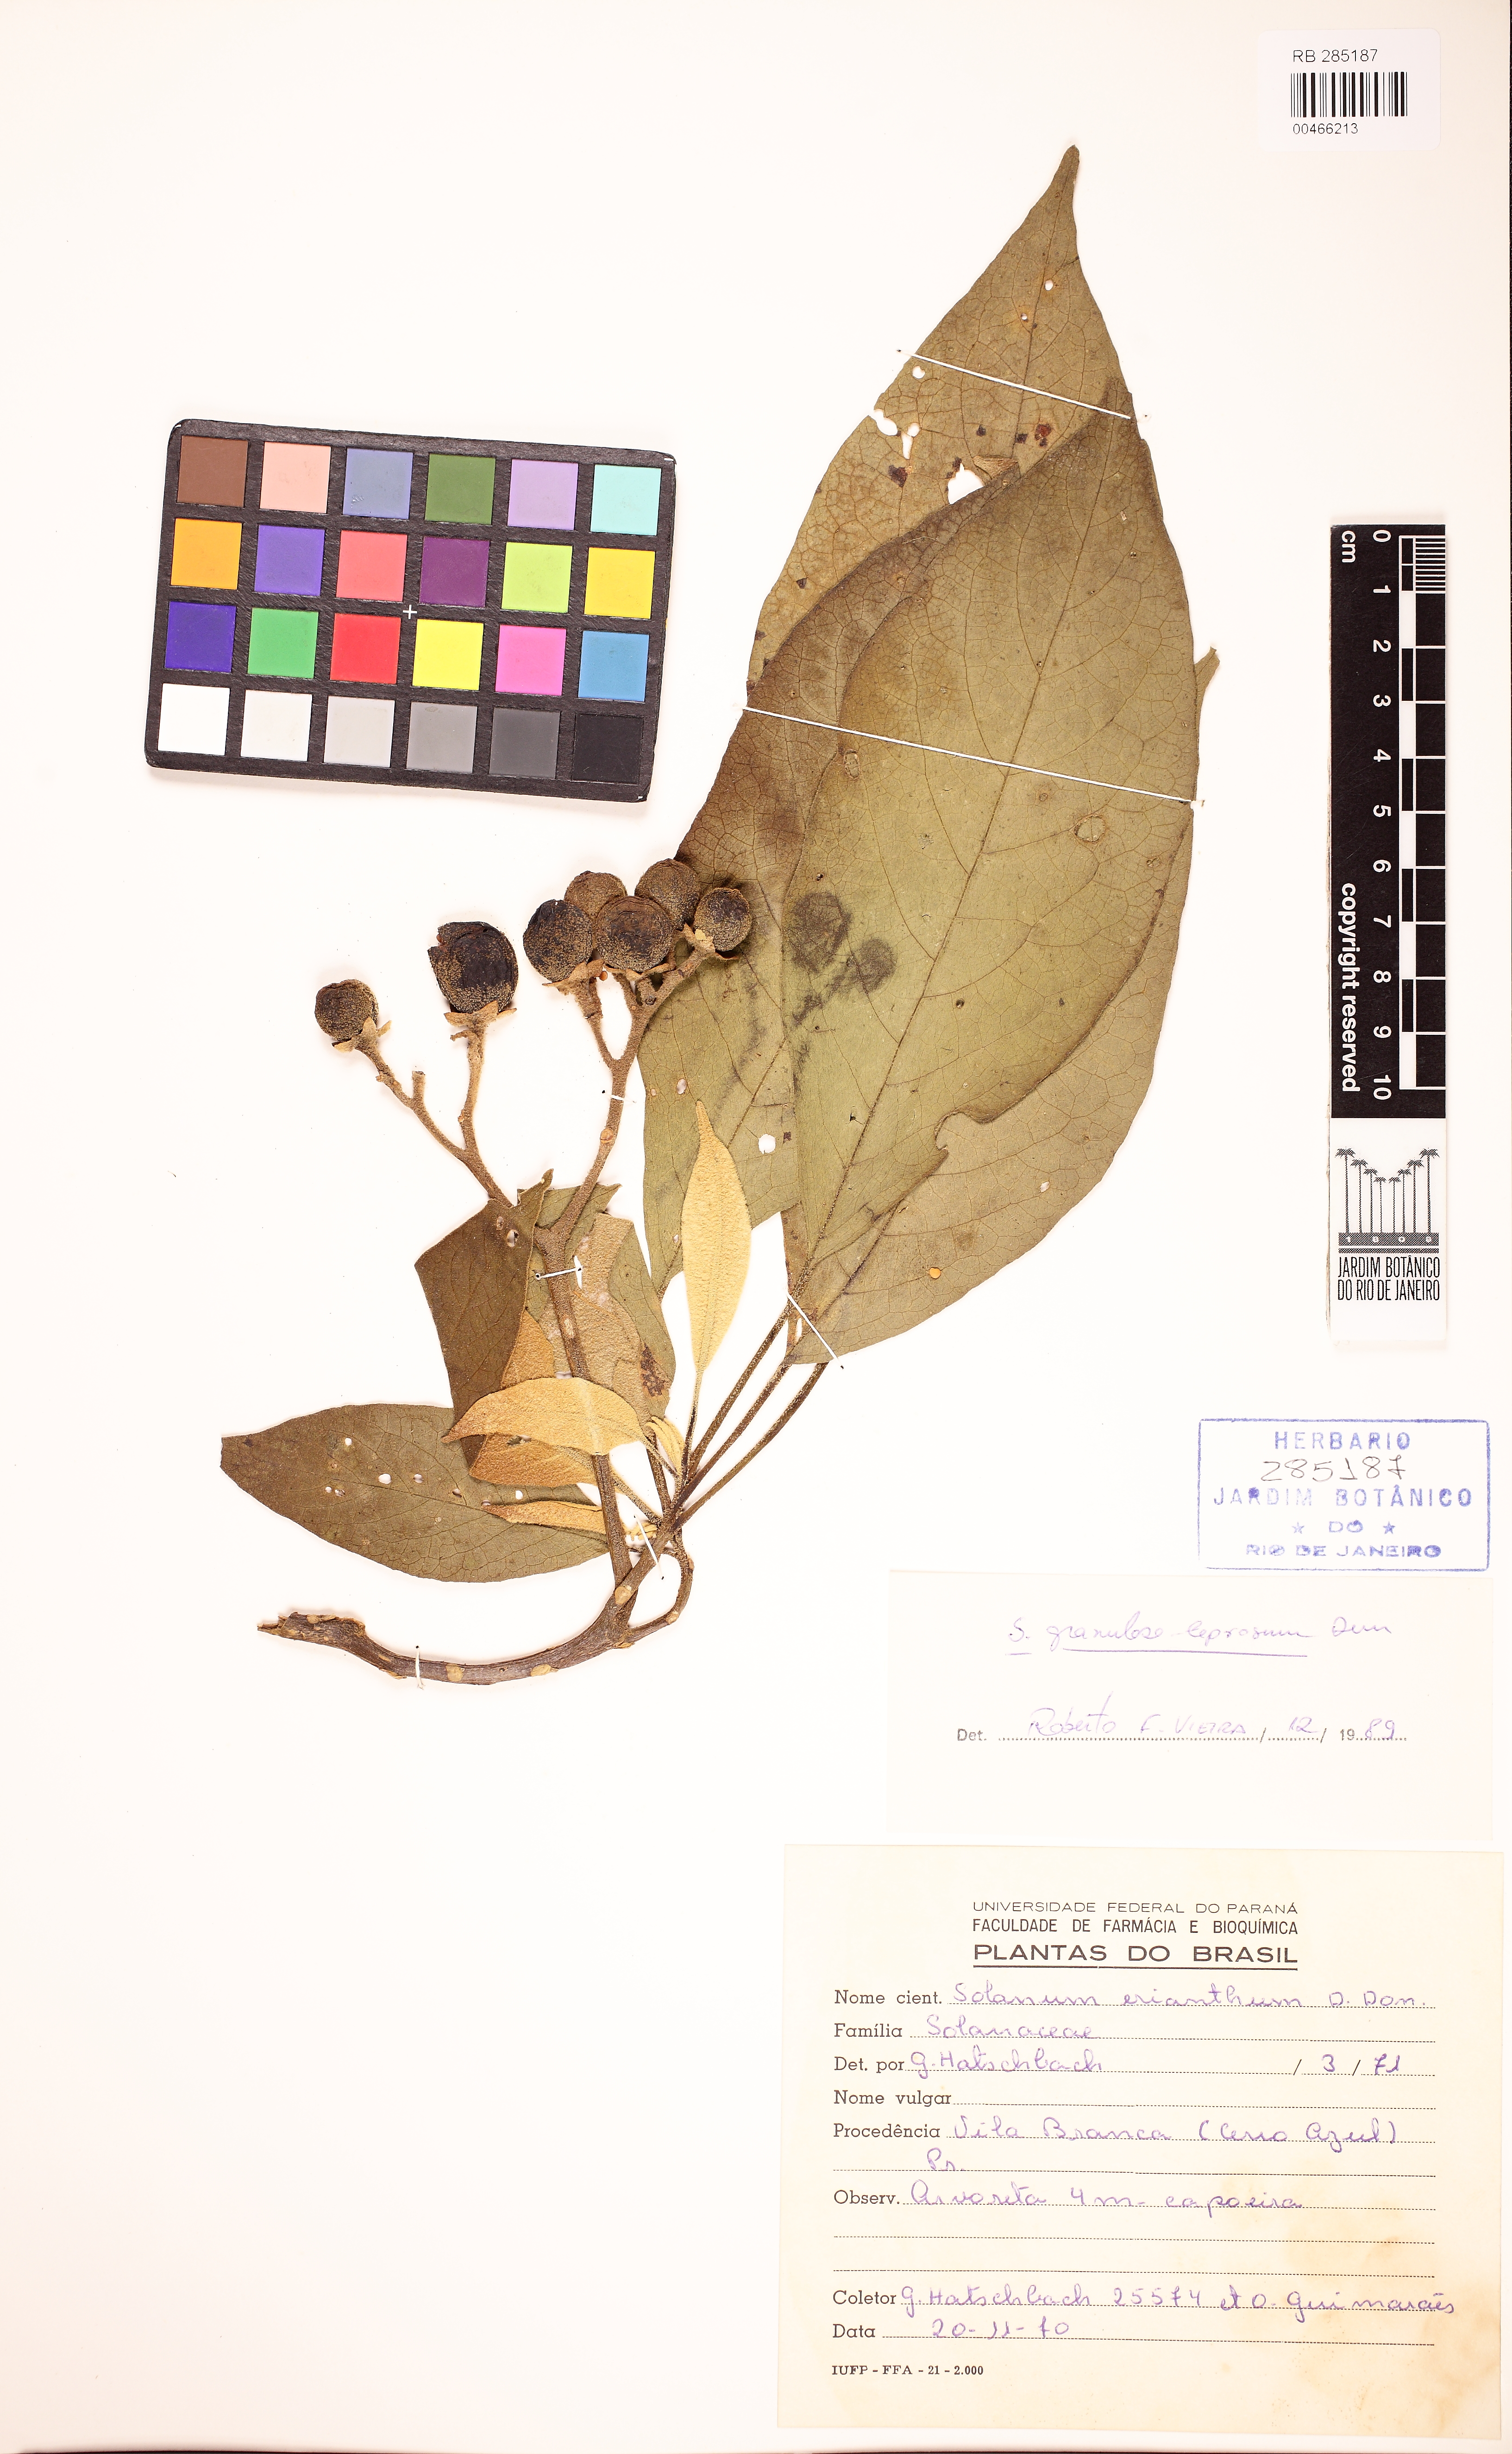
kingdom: Plantae
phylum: Tracheophyta
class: Magnoliopsida
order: Solanales
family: Solanaceae
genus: Solanum
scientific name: Solanum granulosoleprosum
